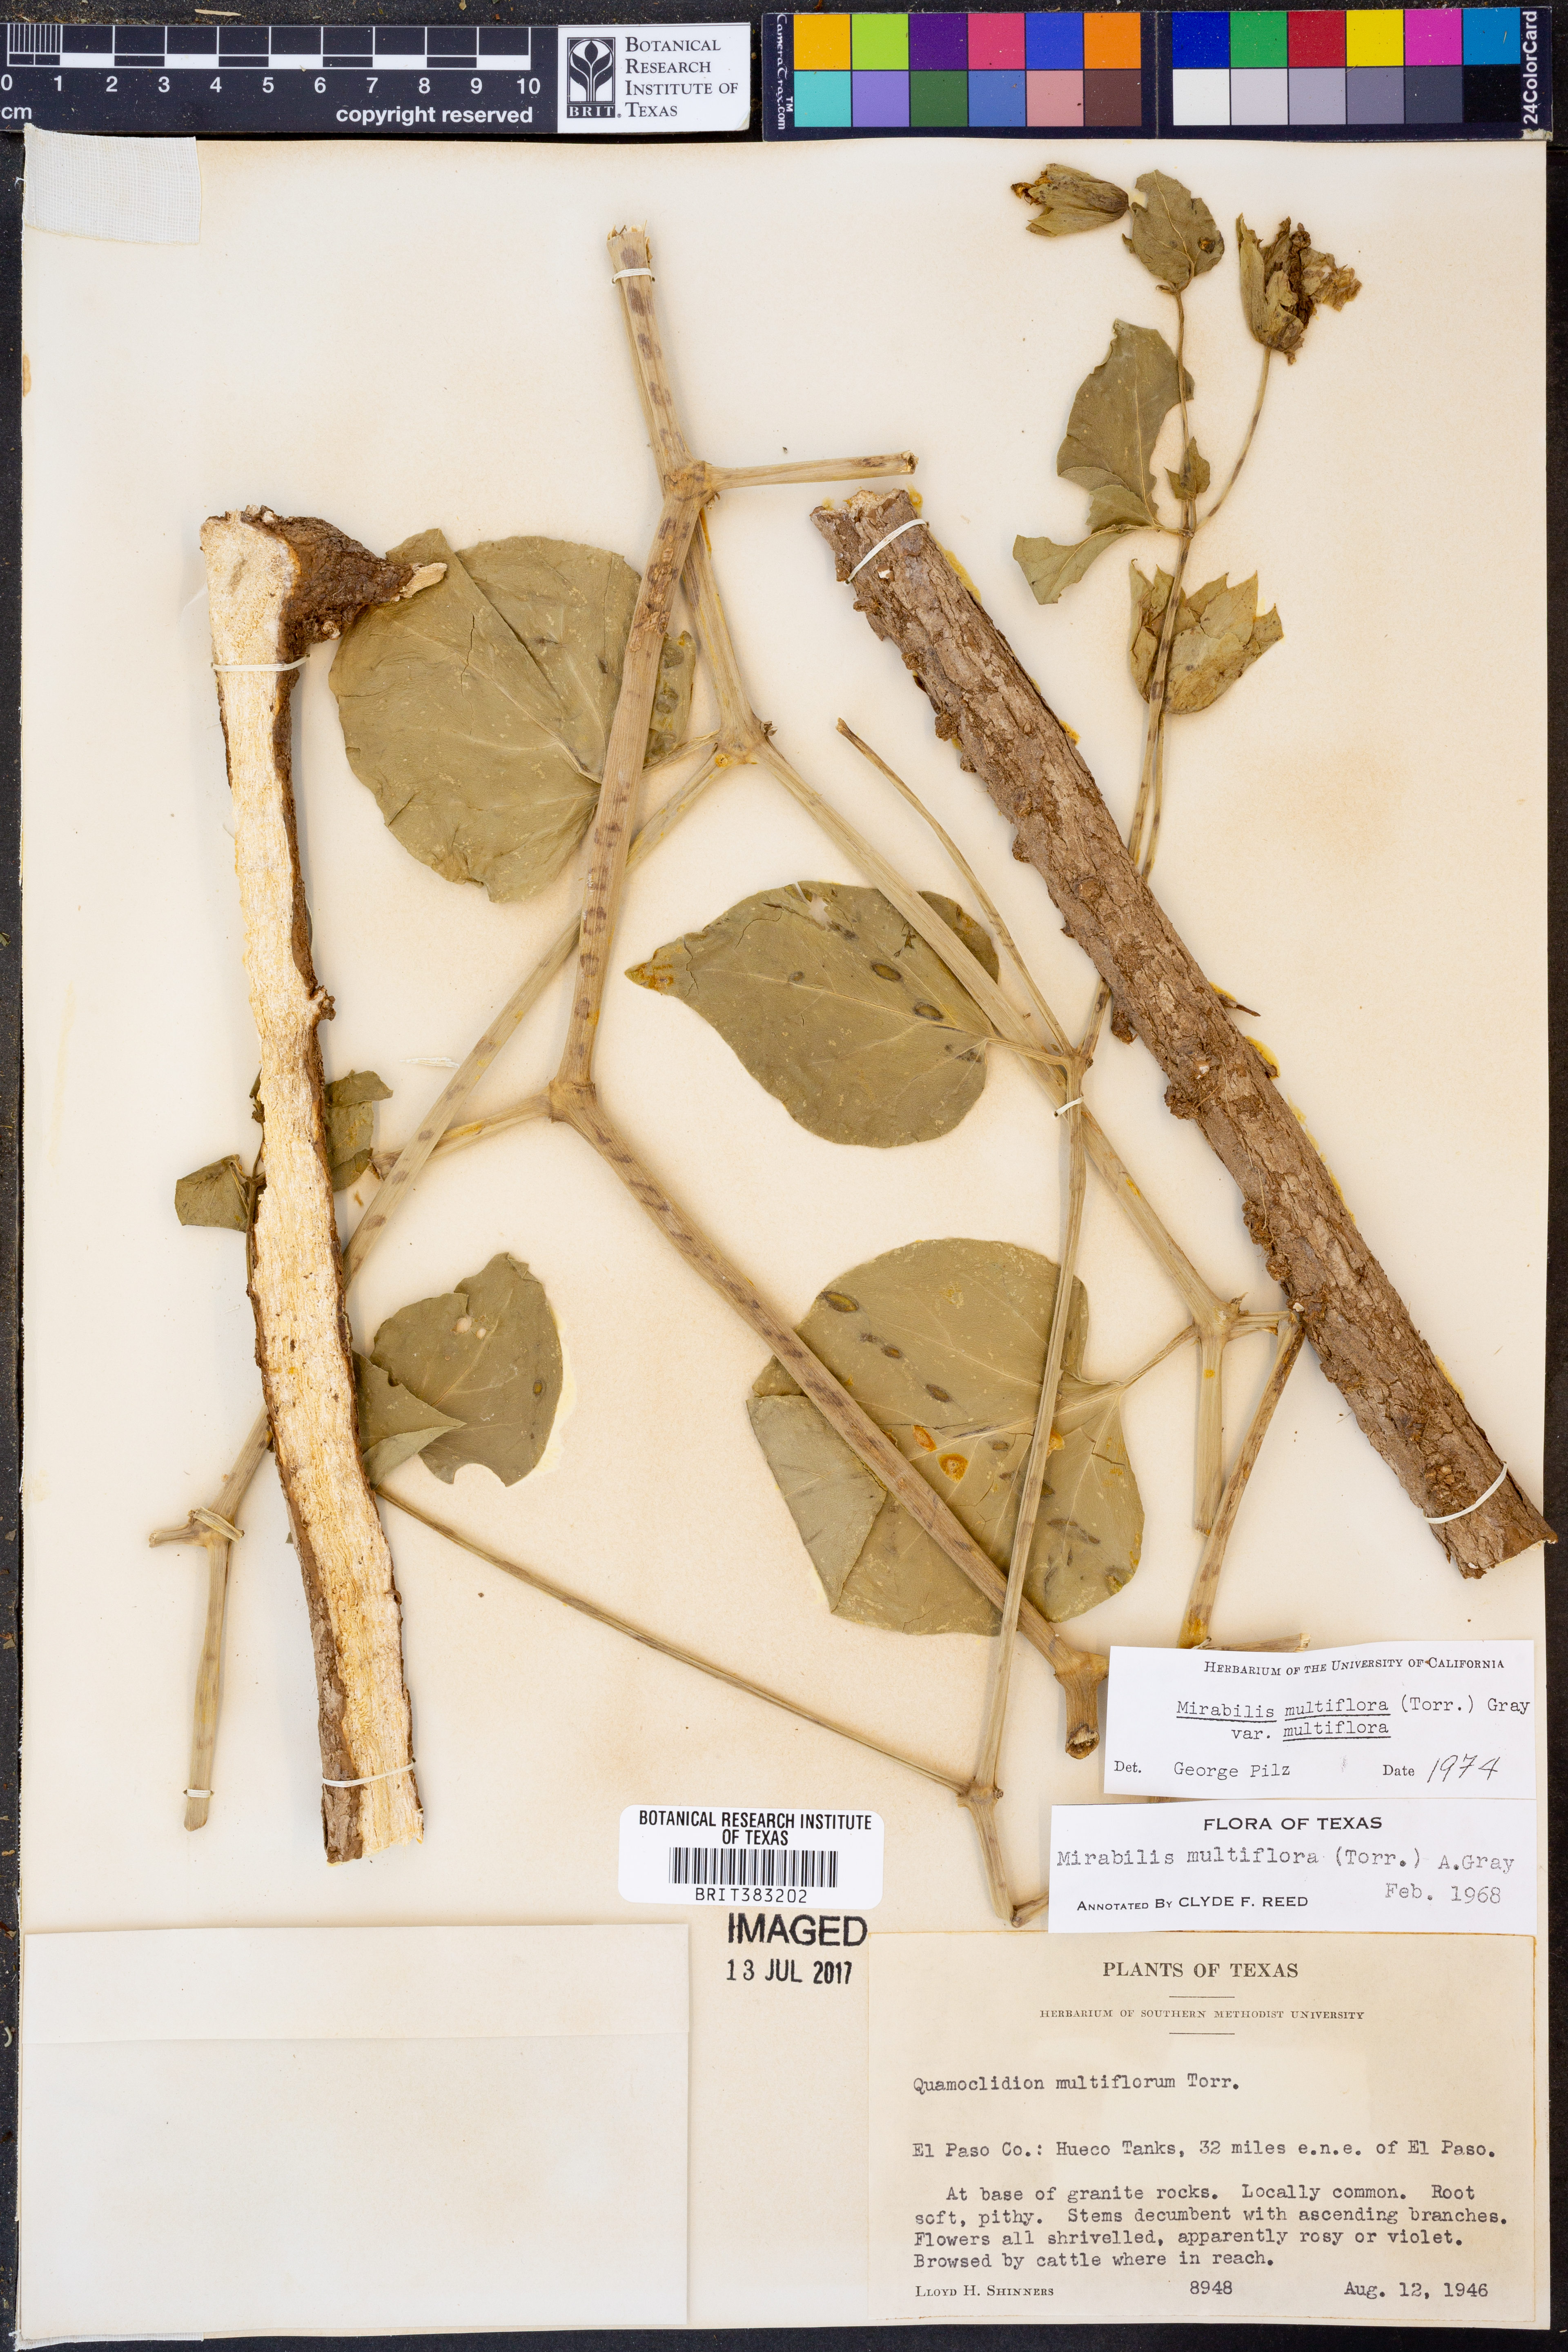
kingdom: Plantae
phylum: Tracheophyta
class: Magnoliopsida
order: Caryophyllales
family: Nyctaginaceae
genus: Mirabilis
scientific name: Mirabilis multiflora
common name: Froebel's four-o'clock
